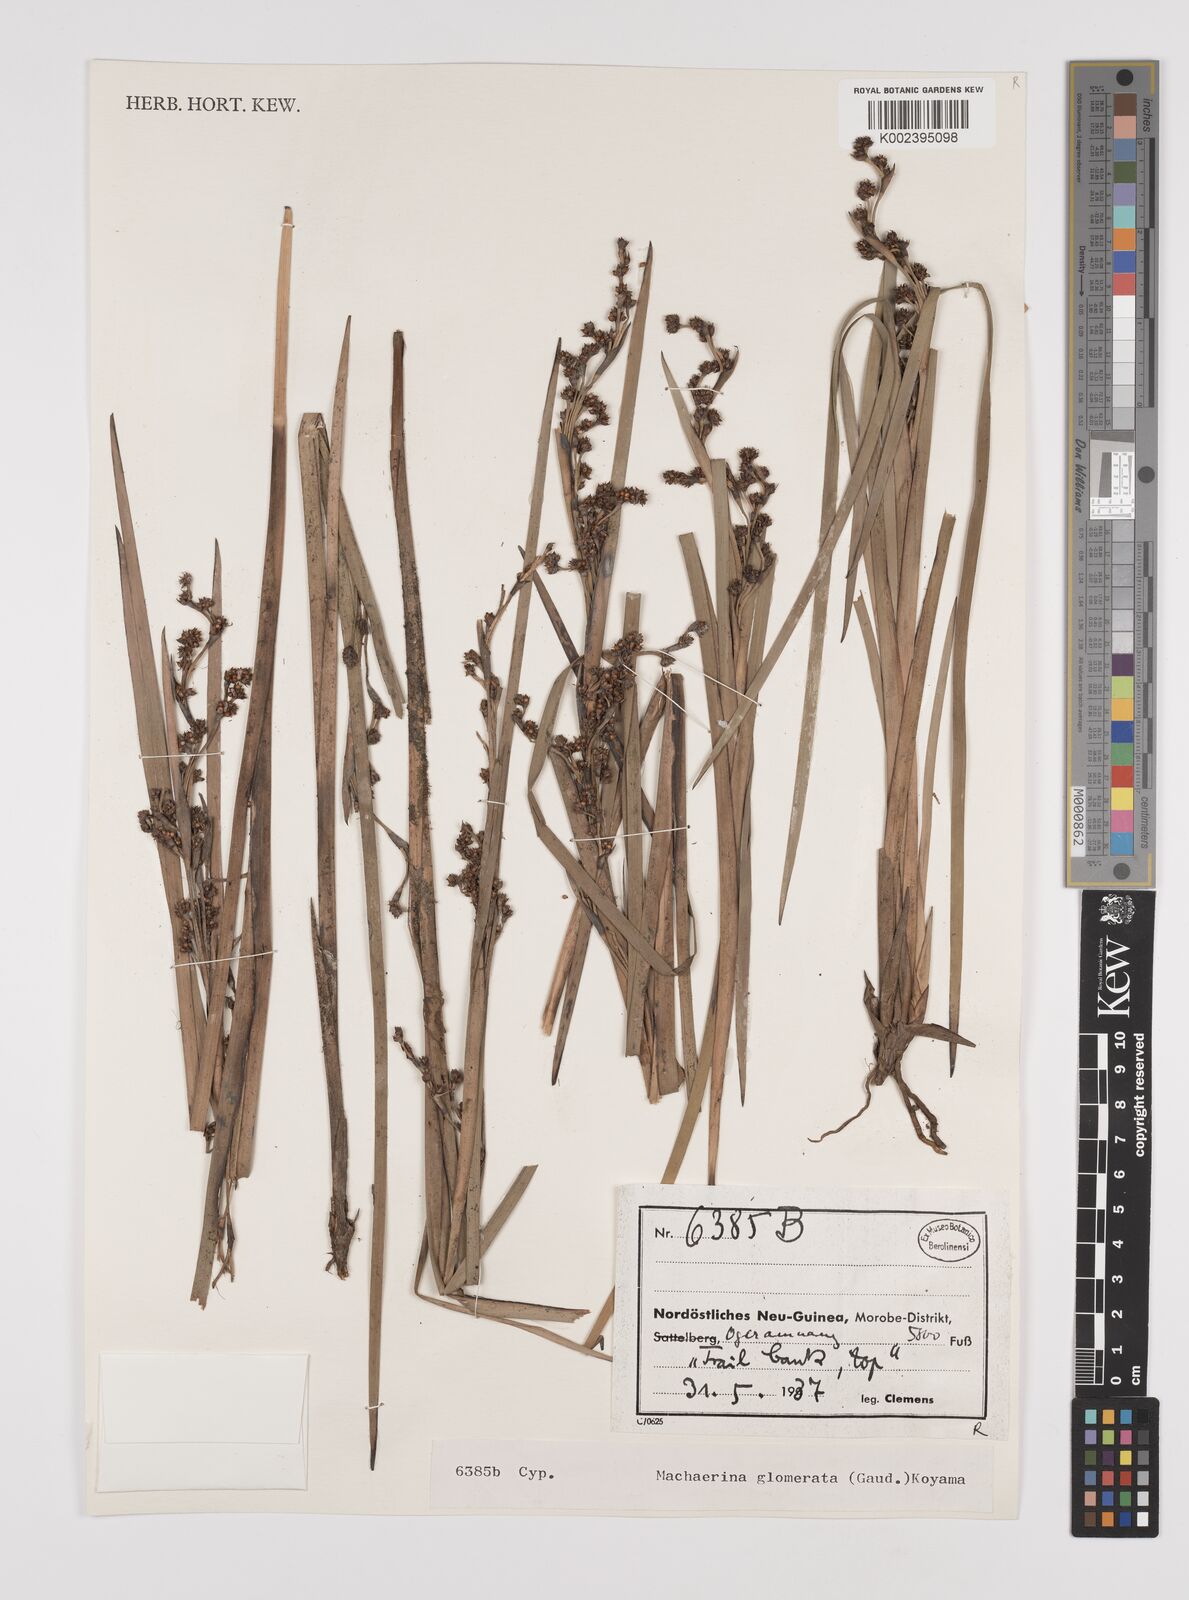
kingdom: Plantae
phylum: Tracheophyta
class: Liliopsida
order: Poales
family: Cyperaceae
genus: Machaerina
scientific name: Machaerina glomerata
